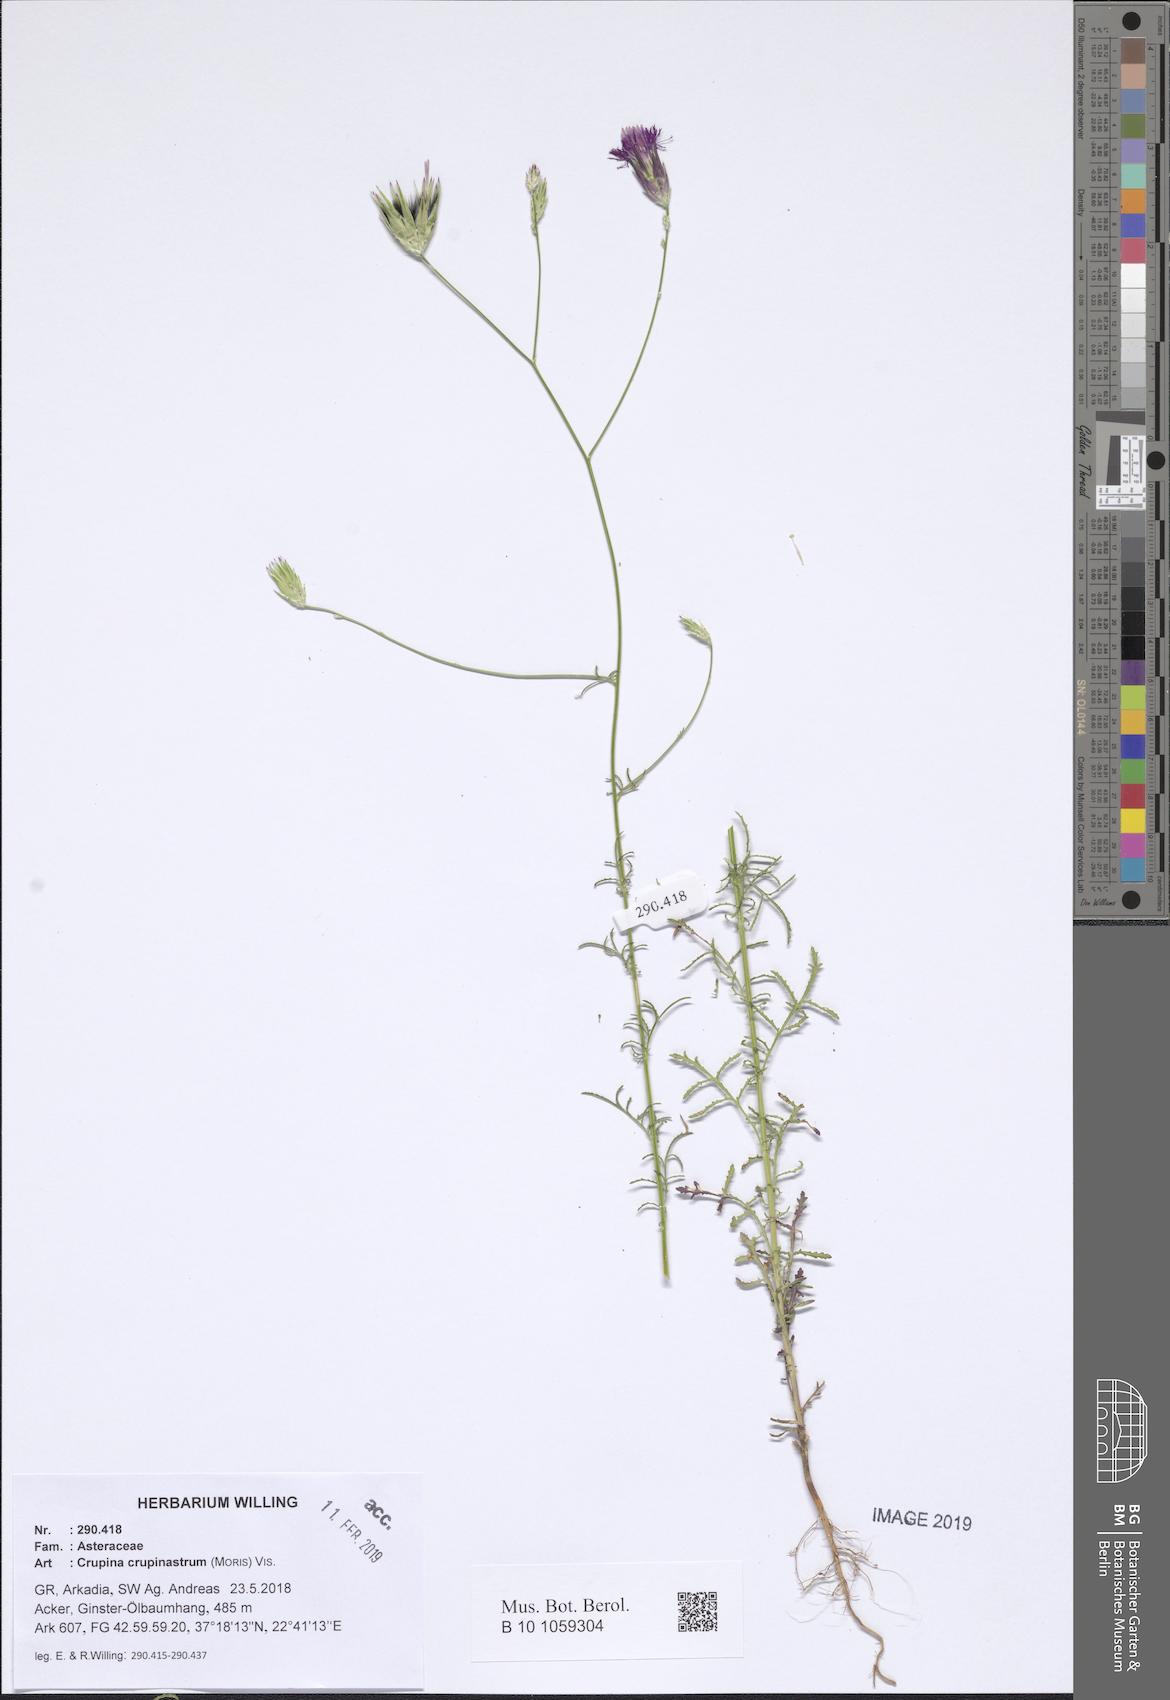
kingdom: Plantae
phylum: Tracheophyta
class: Magnoliopsida
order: Asterales
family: Asteraceae
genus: Crupina
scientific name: Crupina crupinastrum
